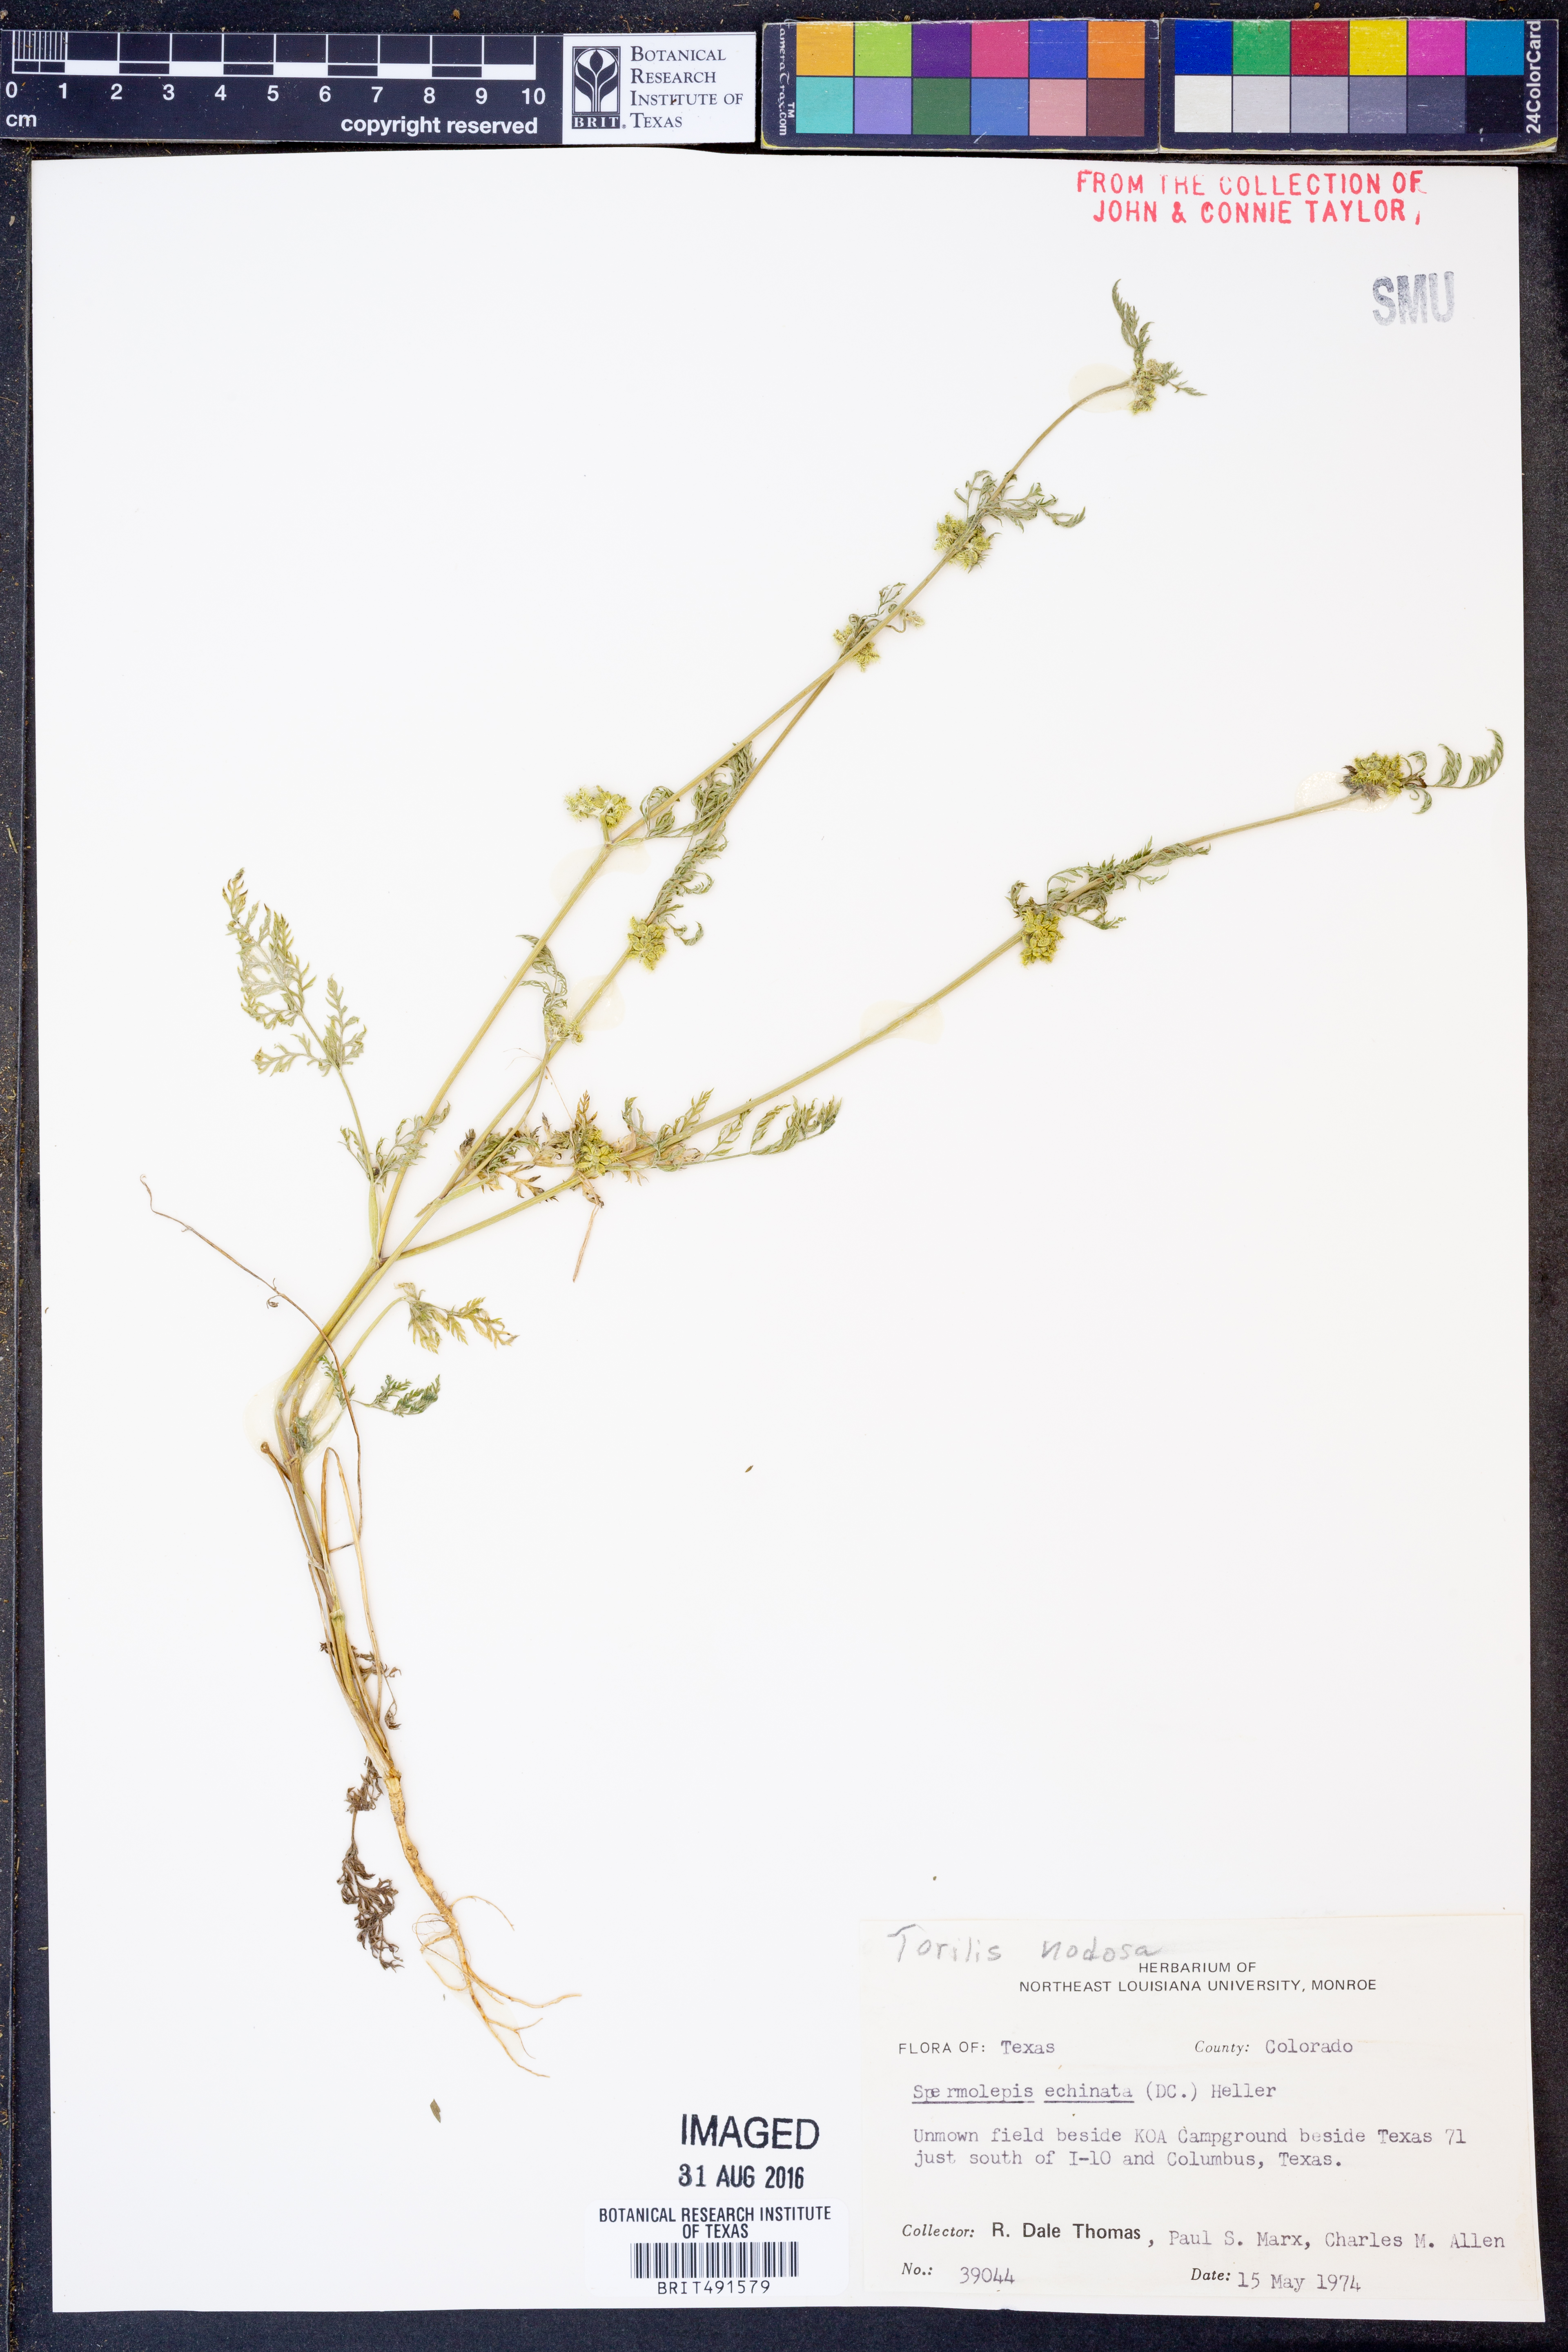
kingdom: Plantae
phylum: Tracheophyta
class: Magnoliopsida
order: Apiales
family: Apiaceae
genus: Torilis
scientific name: Torilis nodosa
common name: Knotted hedge-parsley
